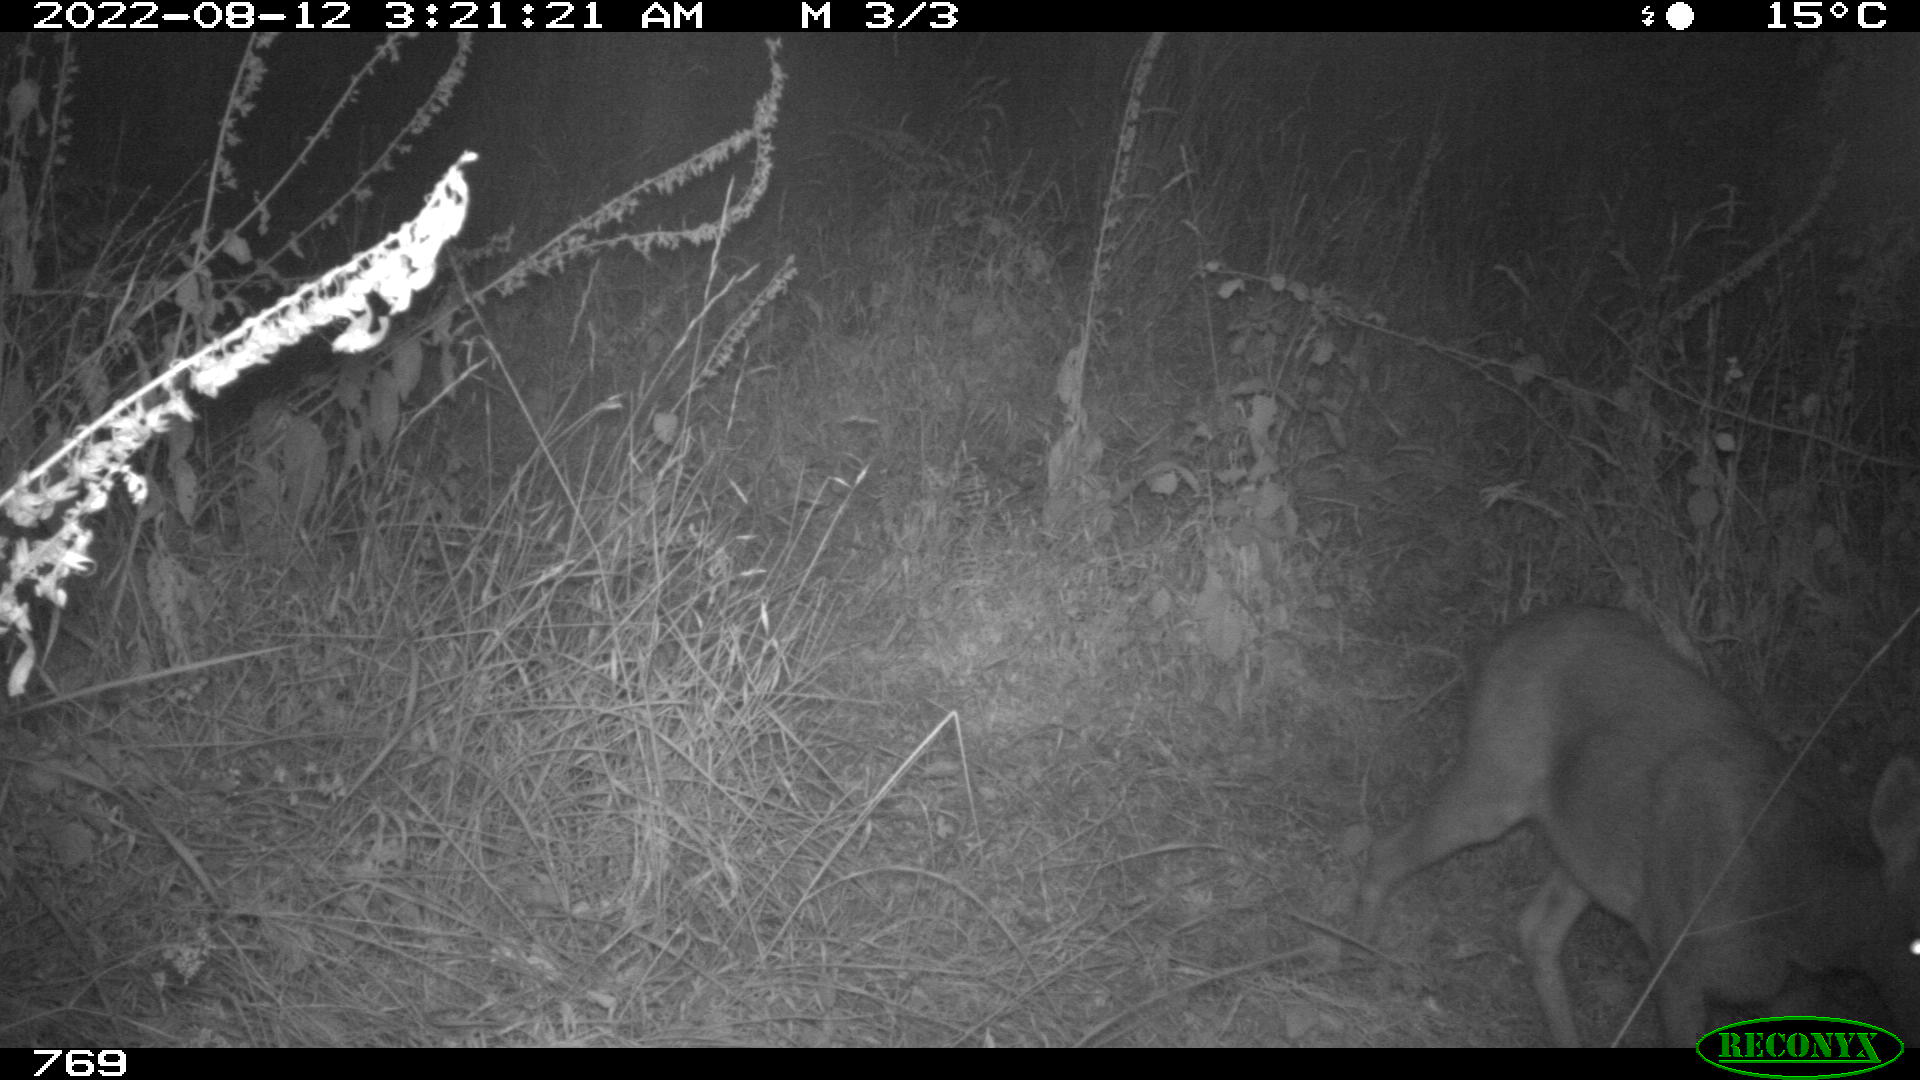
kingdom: Animalia
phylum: Chordata
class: Mammalia
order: Artiodactyla
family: Cervidae
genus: Capreolus
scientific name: Capreolus capreolus
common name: Western roe deer
